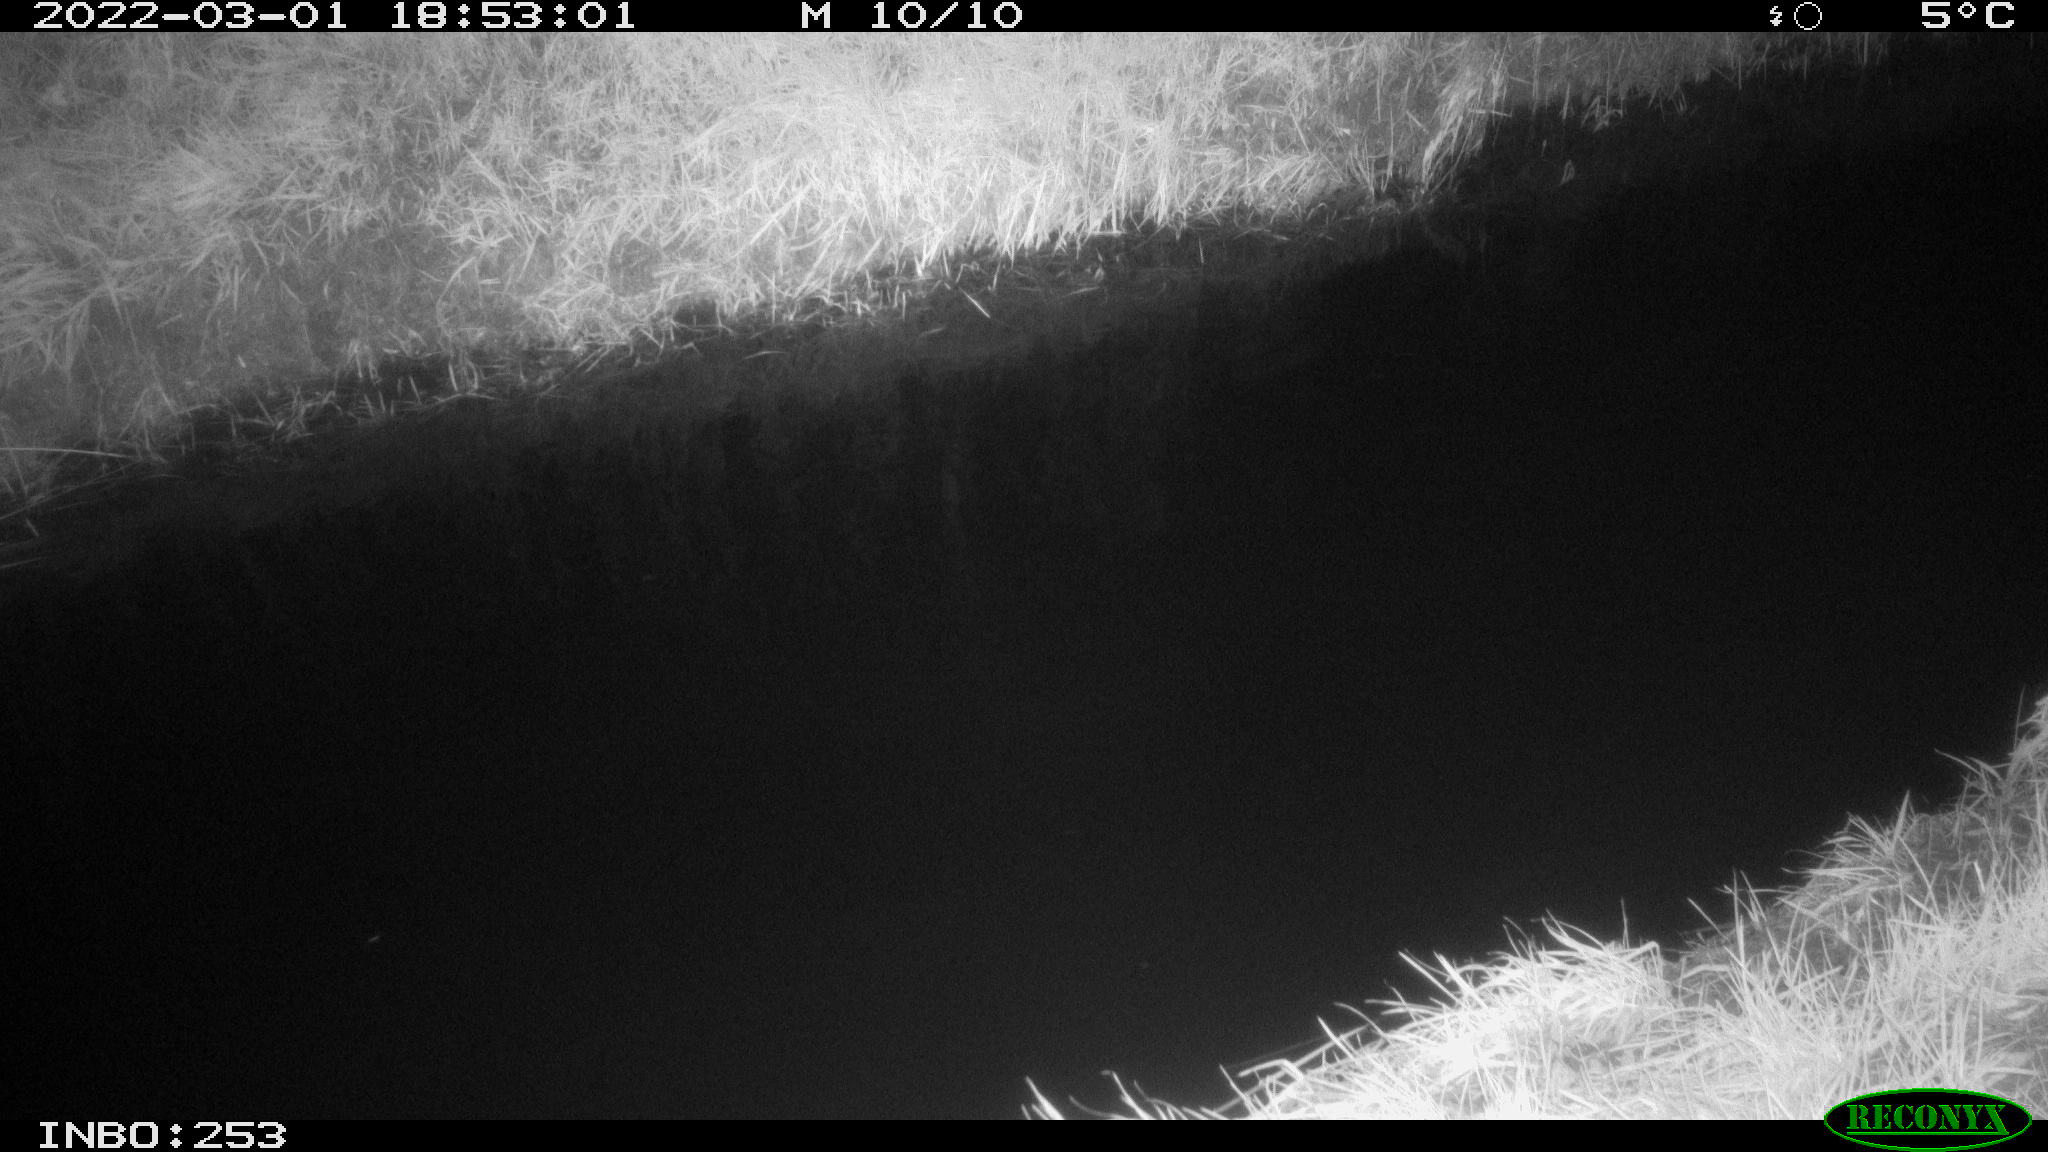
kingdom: Animalia
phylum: Chordata
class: Aves
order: Anseriformes
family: Anatidae
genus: Anas
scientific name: Anas platyrhynchos
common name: Mallard
